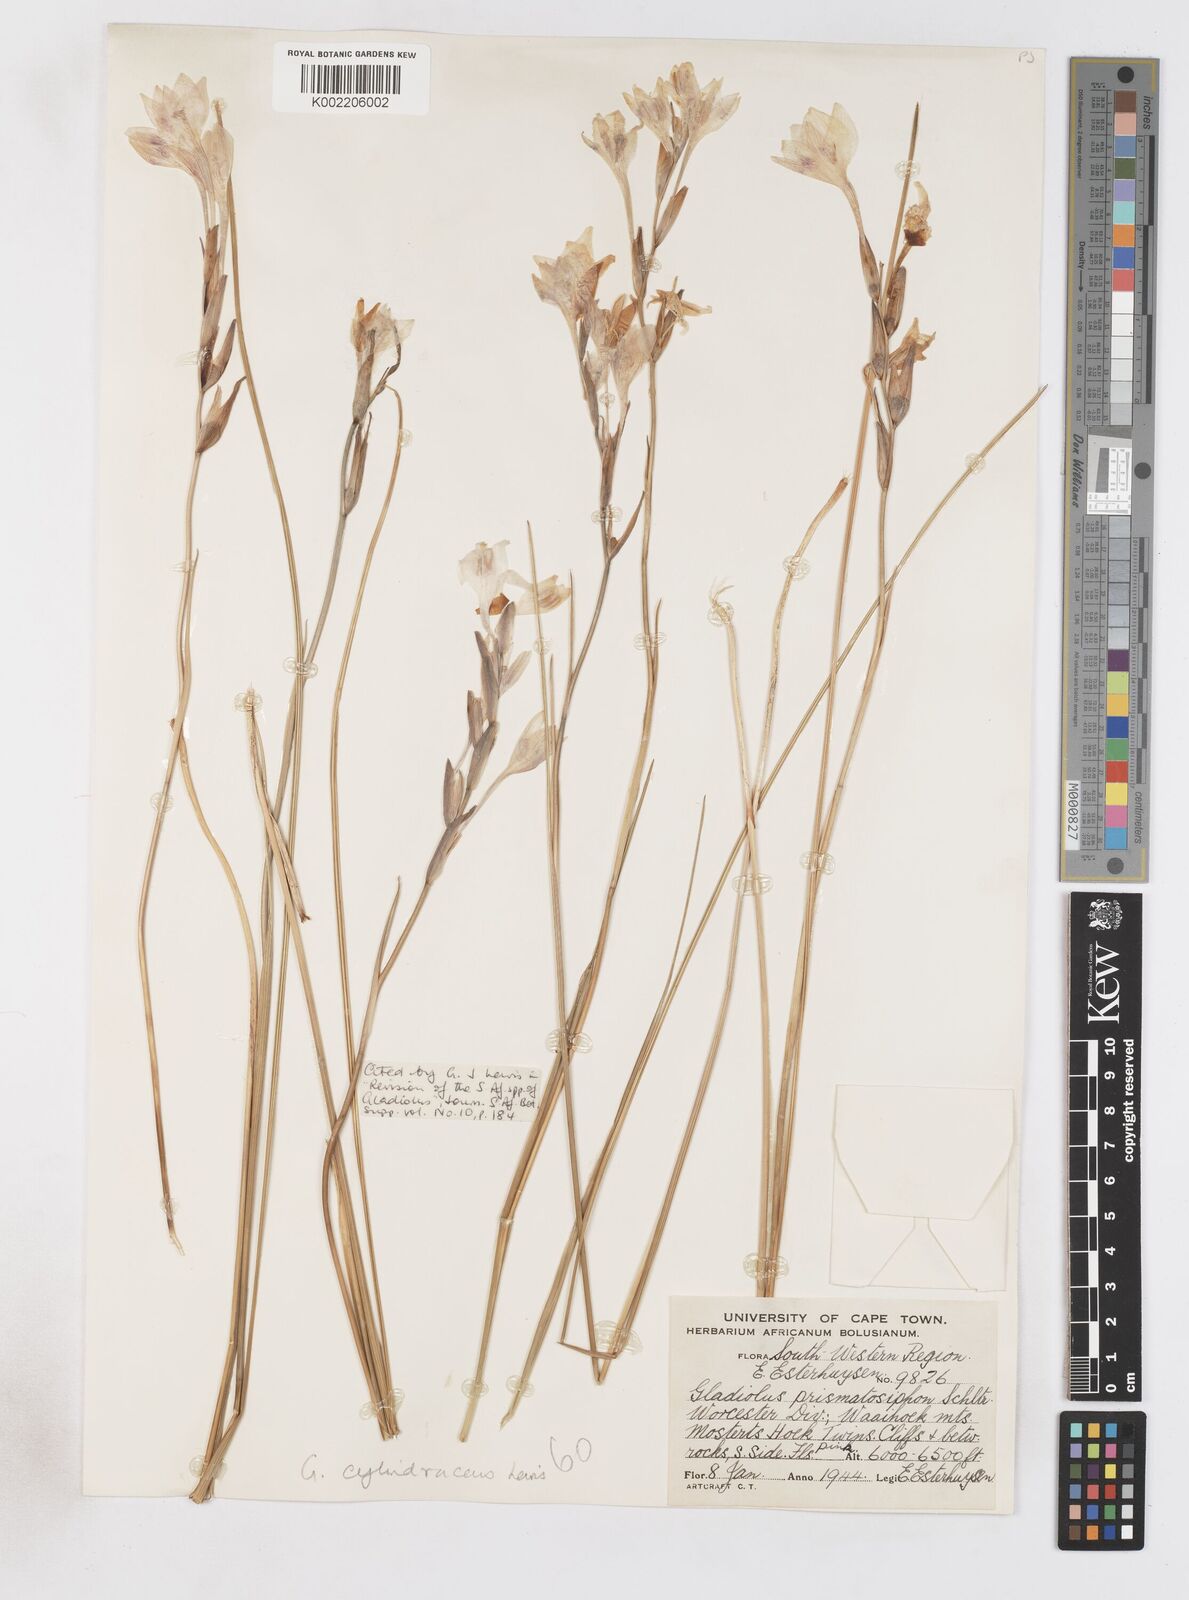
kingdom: Plantae
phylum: Tracheophyta
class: Liliopsida
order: Asparagales
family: Iridaceae
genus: Gladiolus
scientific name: Gladiolus cylindraceus
